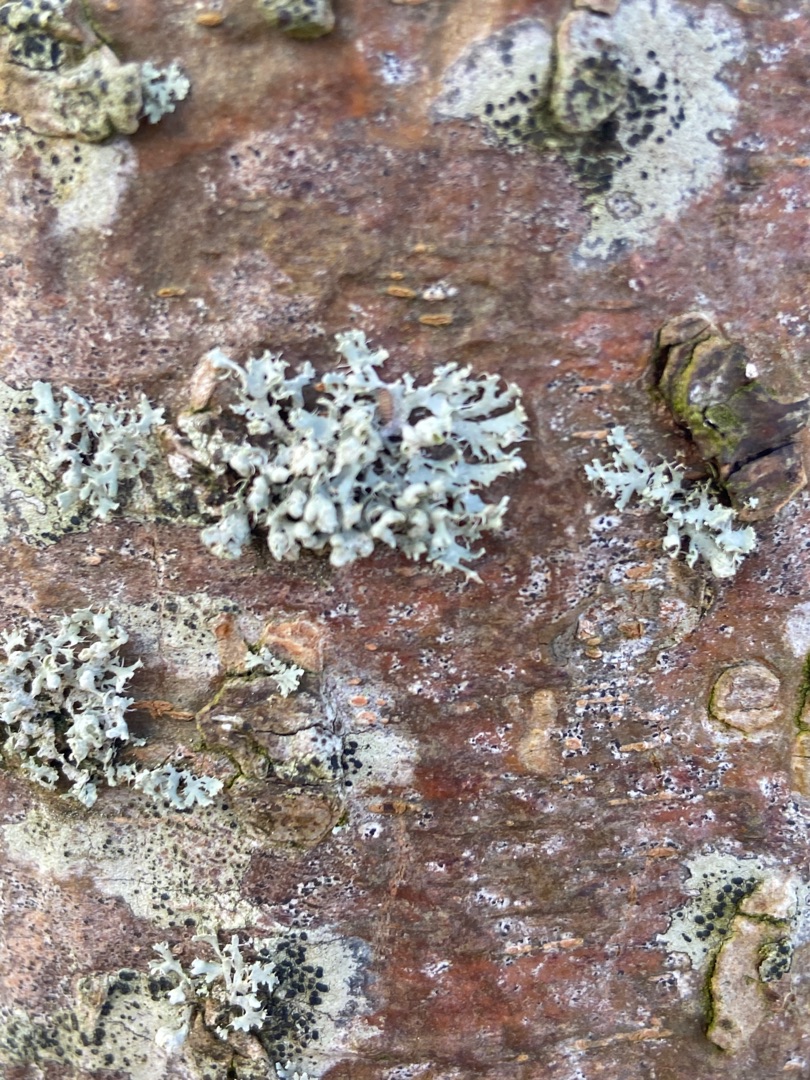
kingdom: Fungi
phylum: Ascomycota
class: Lecanoromycetes
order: Caliciales
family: Physciaceae
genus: Physcia
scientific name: Physcia adscendens
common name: Hætte-rosetlav
